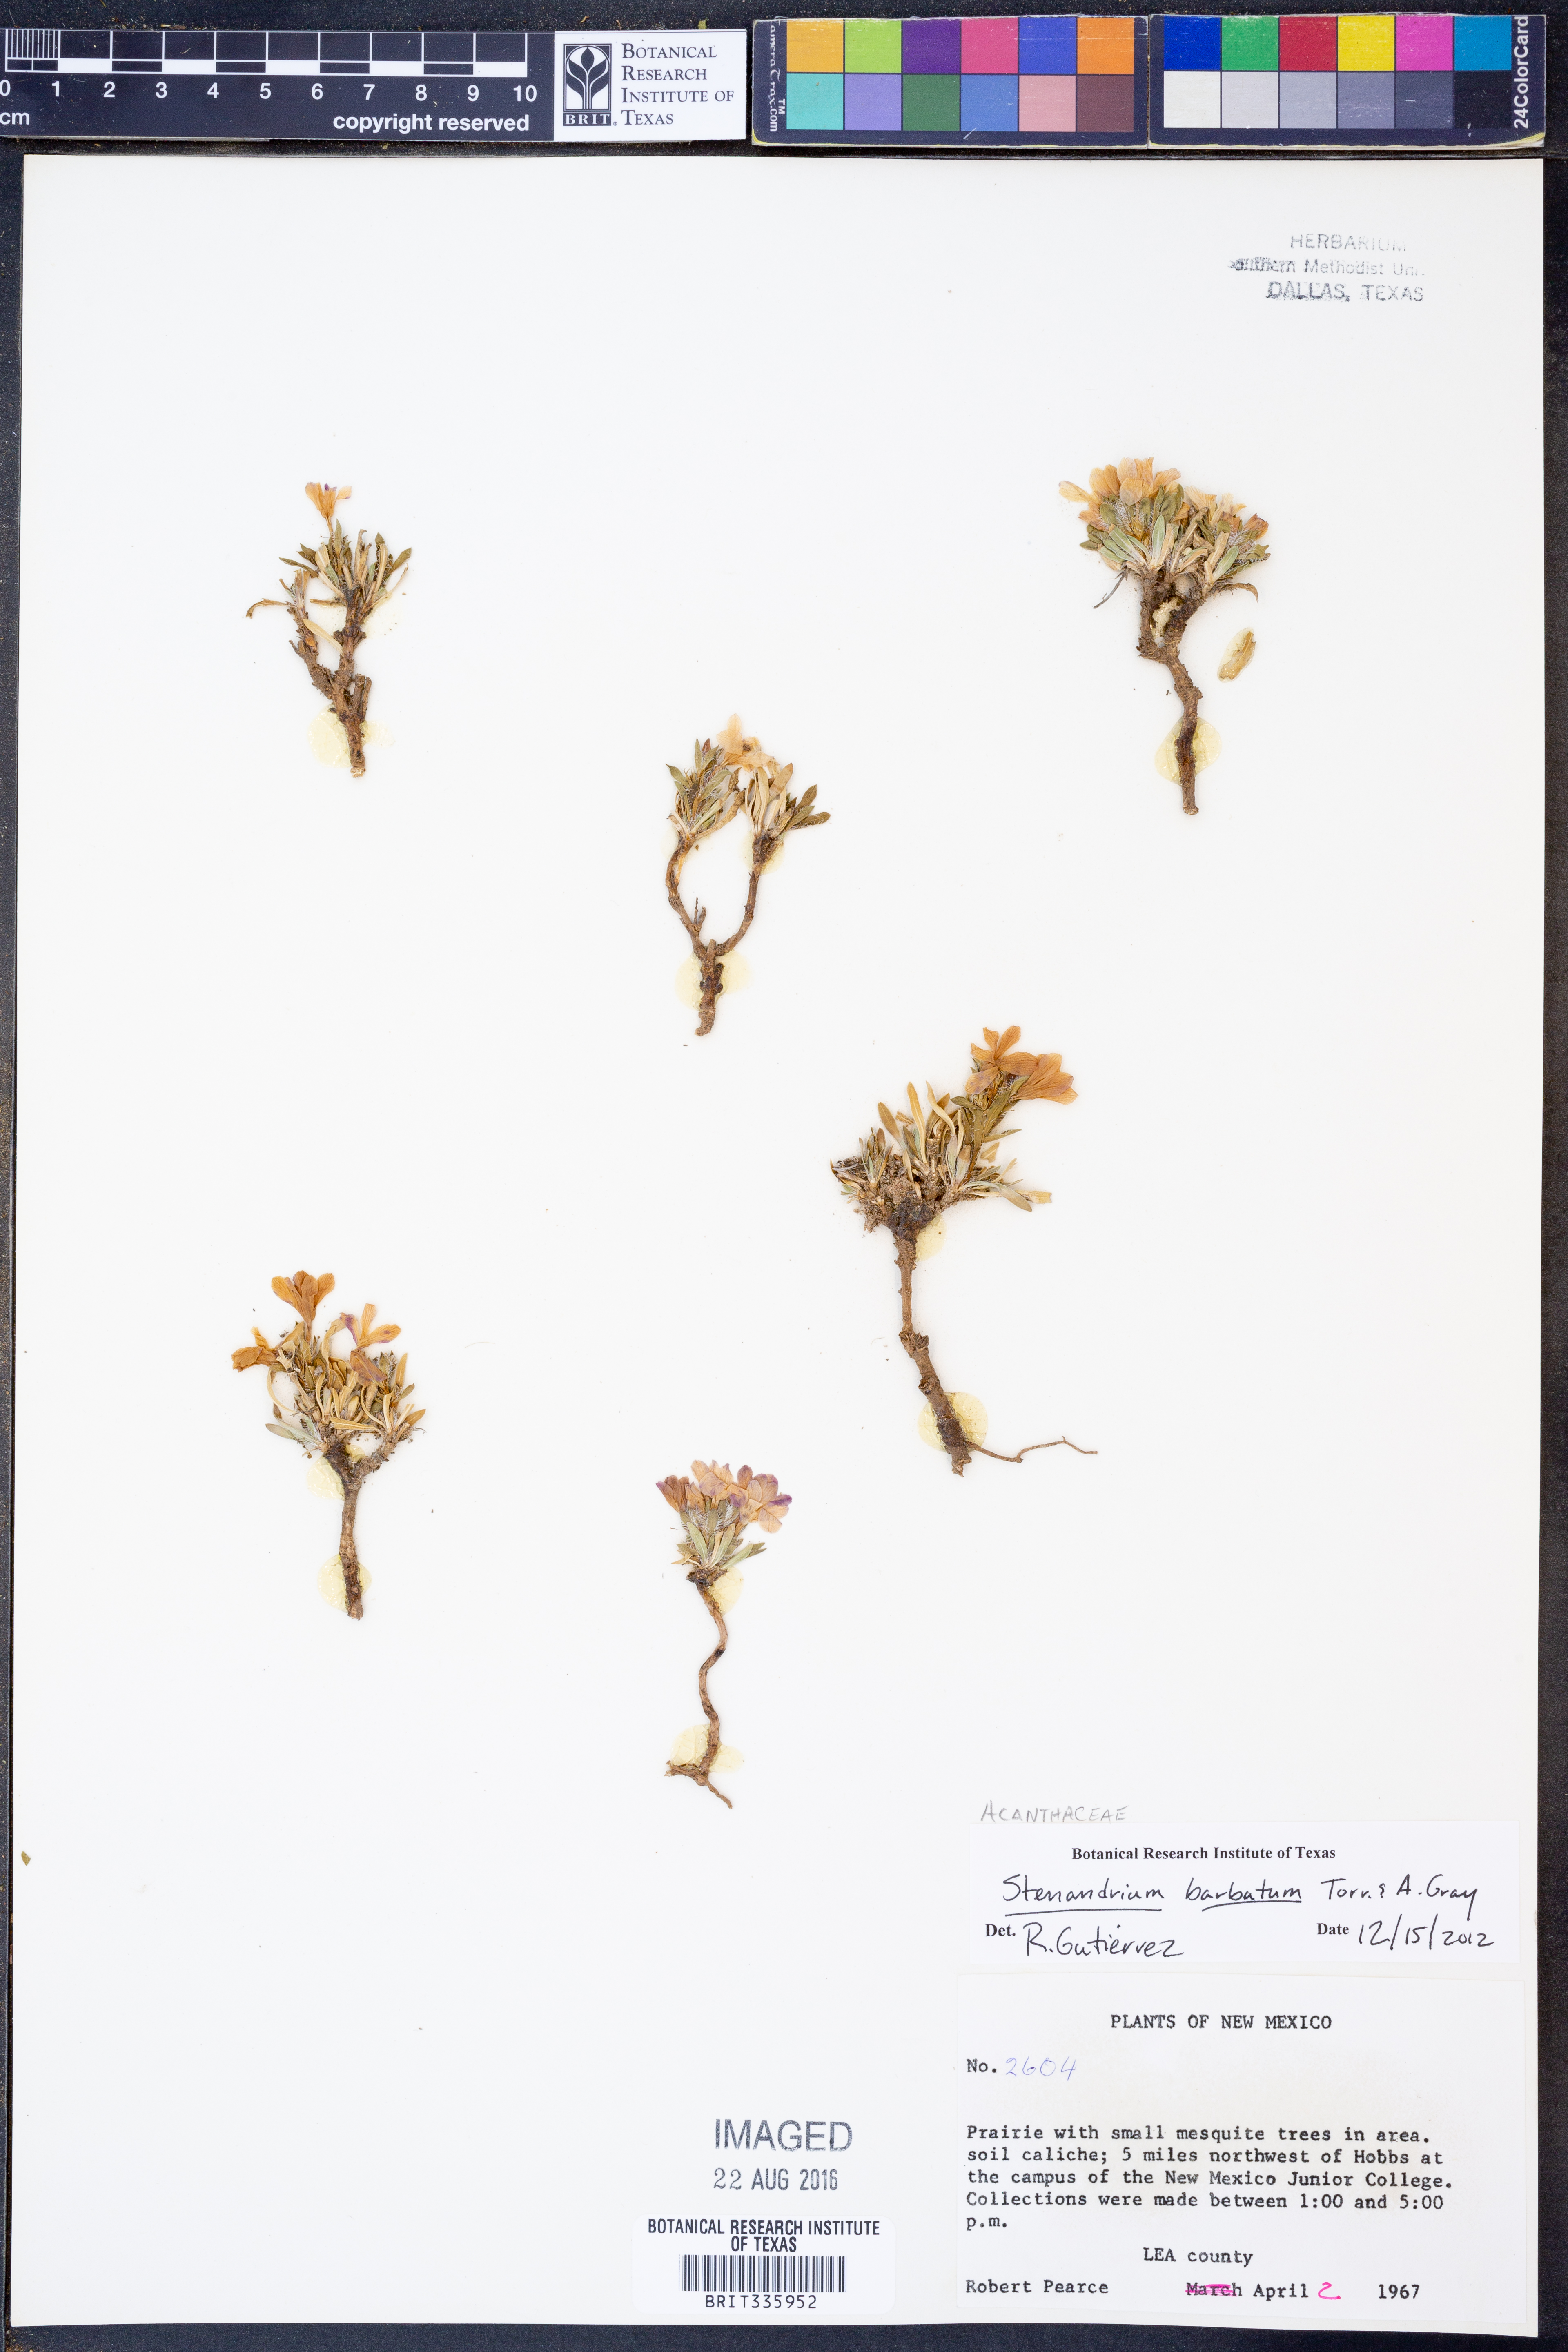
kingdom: Plantae
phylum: Tracheophyta
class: Magnoliopsida
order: Lamiales
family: Acanthaceae
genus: Stenandrium
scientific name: Stenandrium barbatum
